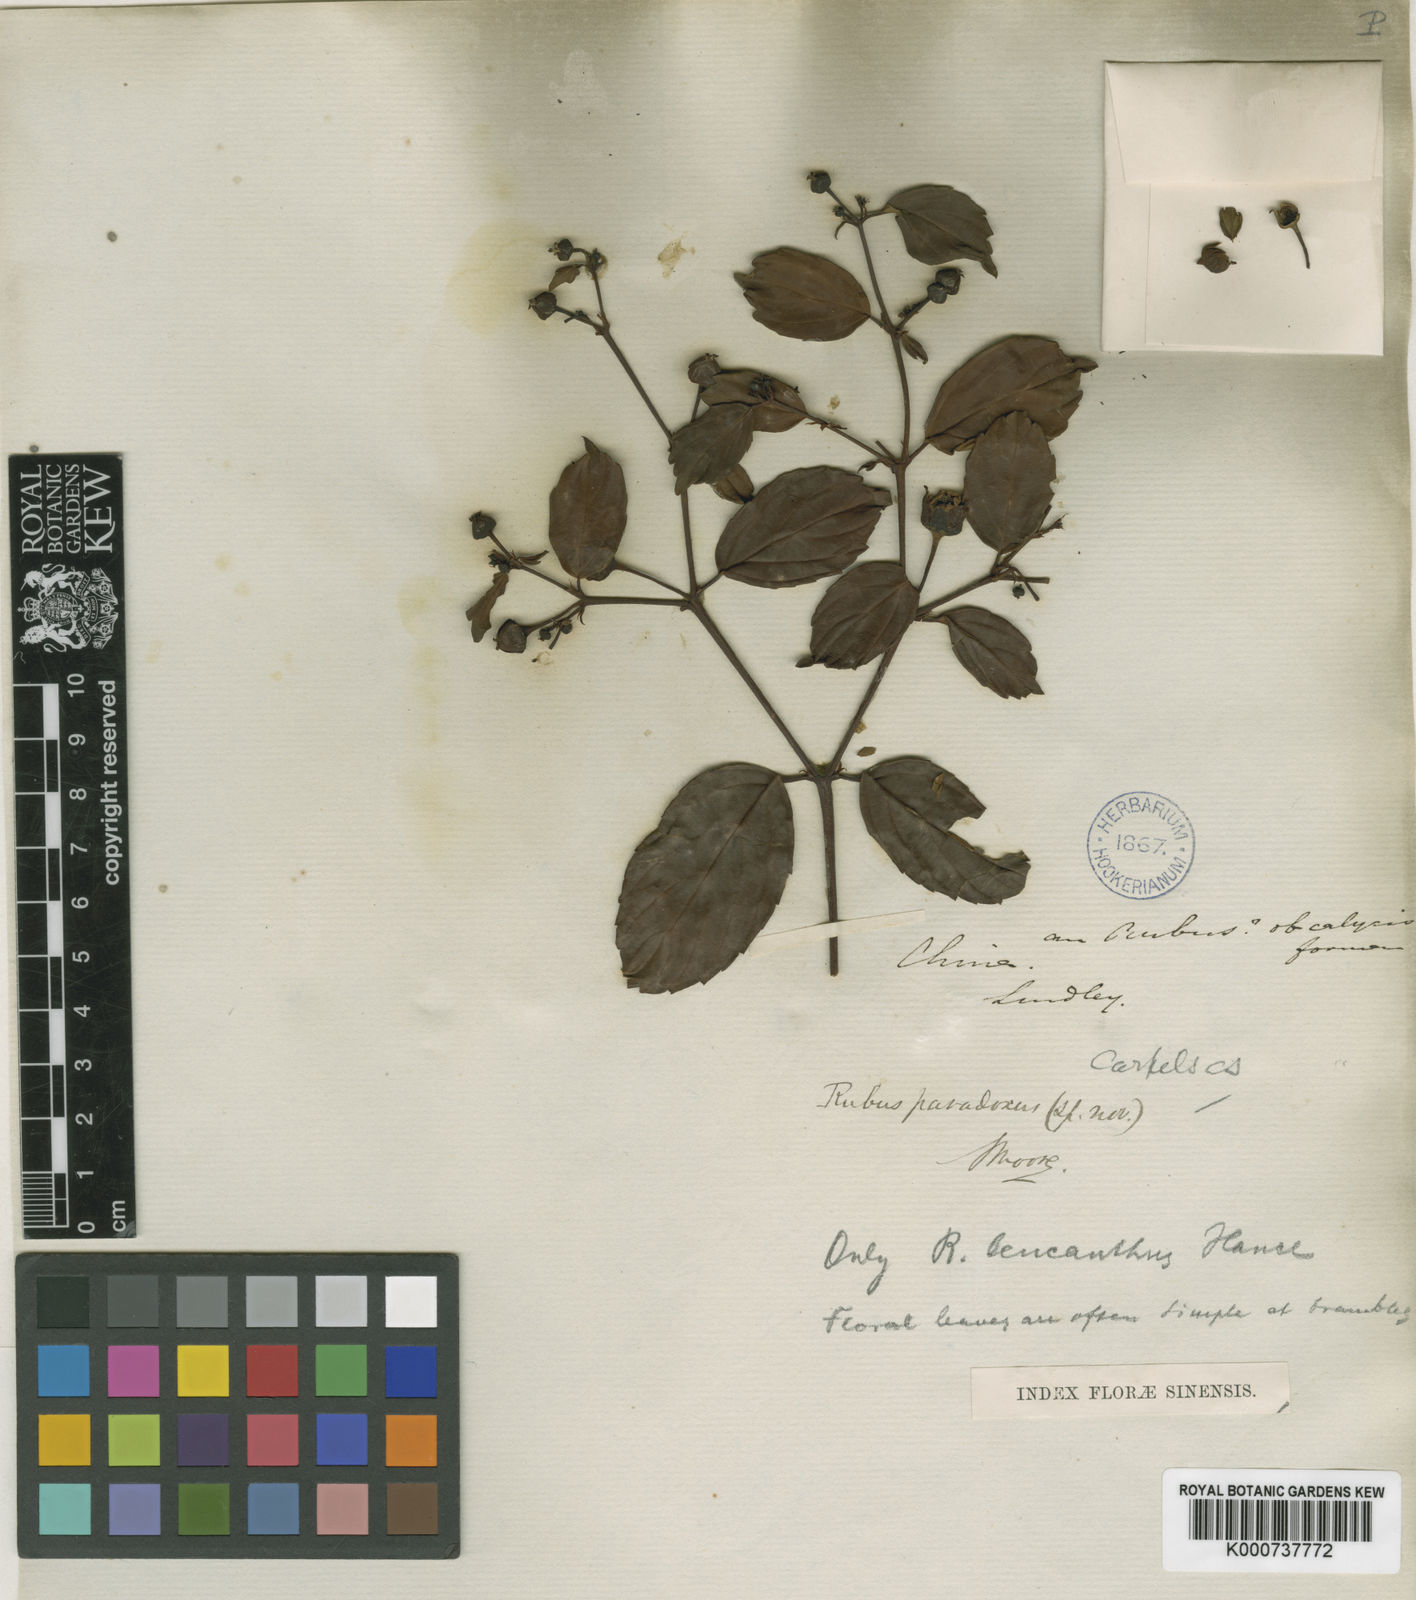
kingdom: Plantae
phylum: Tracheophyta
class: Magnoliopsida
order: Rosales
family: Rosaceae
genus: Rubus
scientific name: Rubus leucanthus
